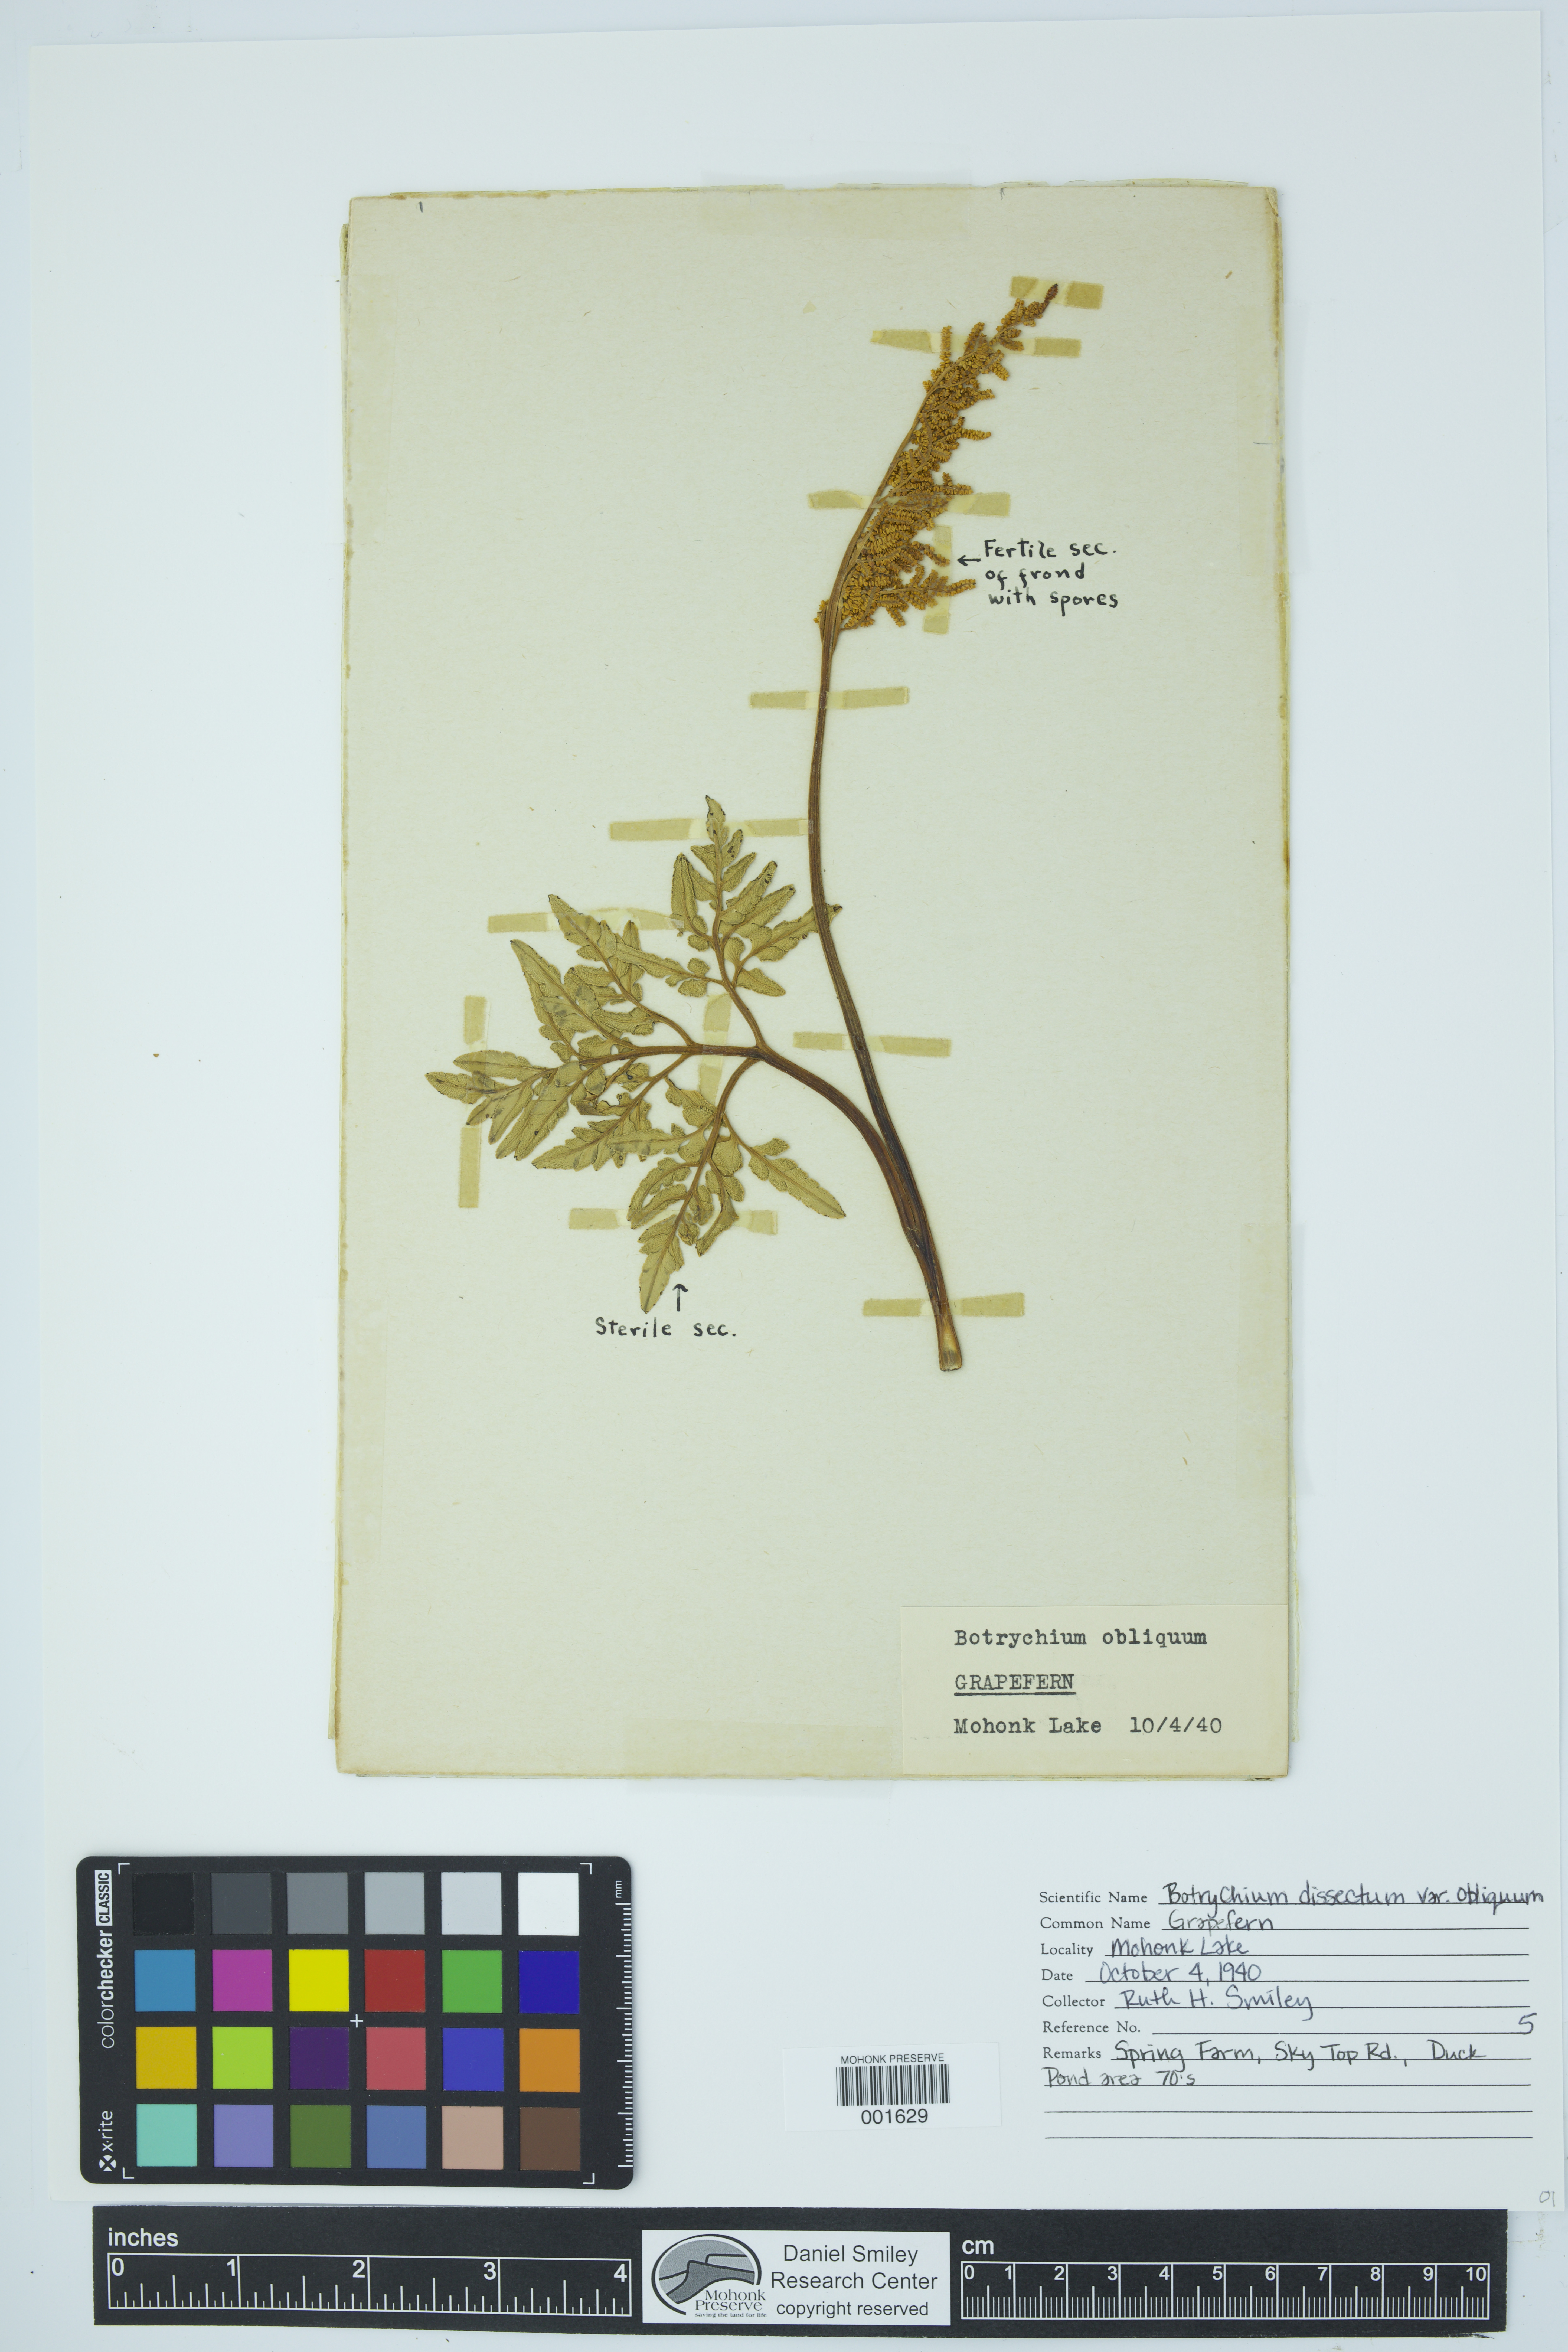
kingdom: Plantae
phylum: Tracheophyta
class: Polypodiopsida
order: Ophioglossales
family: Ophioglossaceae
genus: Sceptridium
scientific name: Sceptridium dissectum
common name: Cut-leaved grapefern
